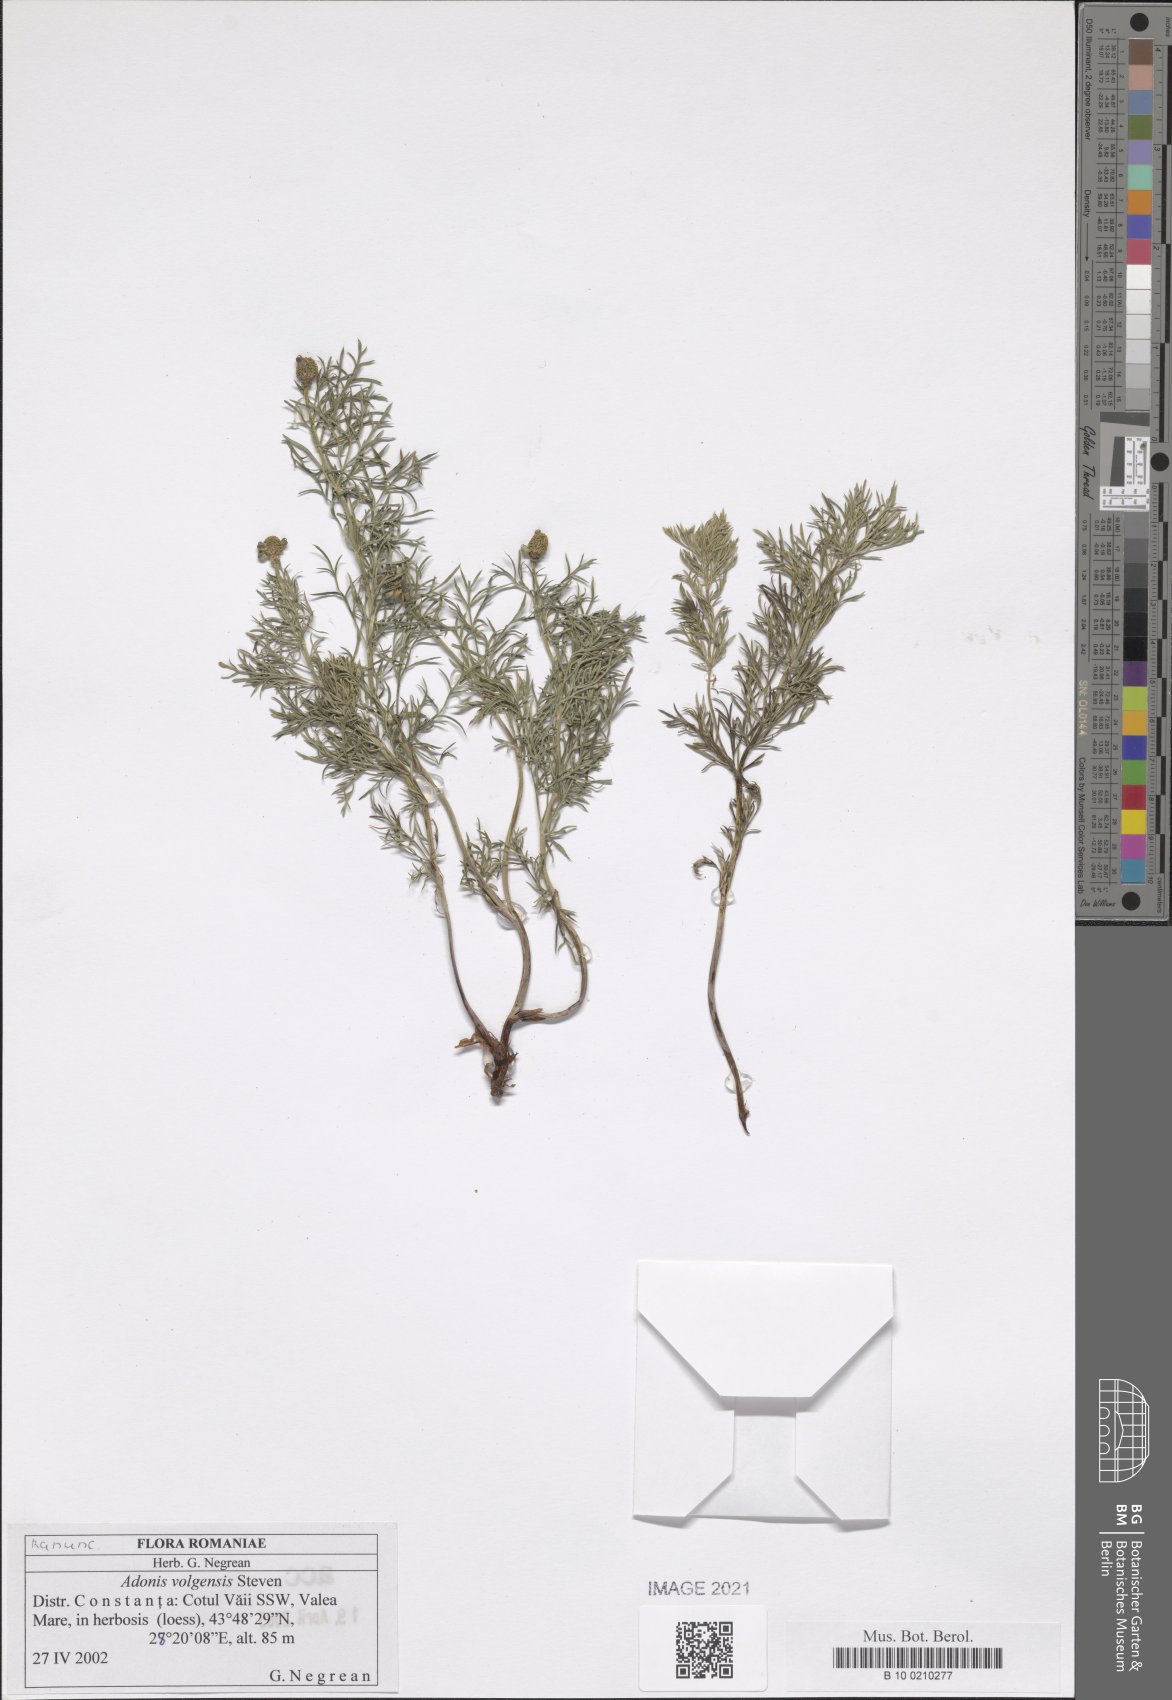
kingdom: Plantae
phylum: Tracheophyta
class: Magnoliopsida
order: Ranunculales
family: Ranunculaceae
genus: Adonis
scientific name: Adonis volgensis
